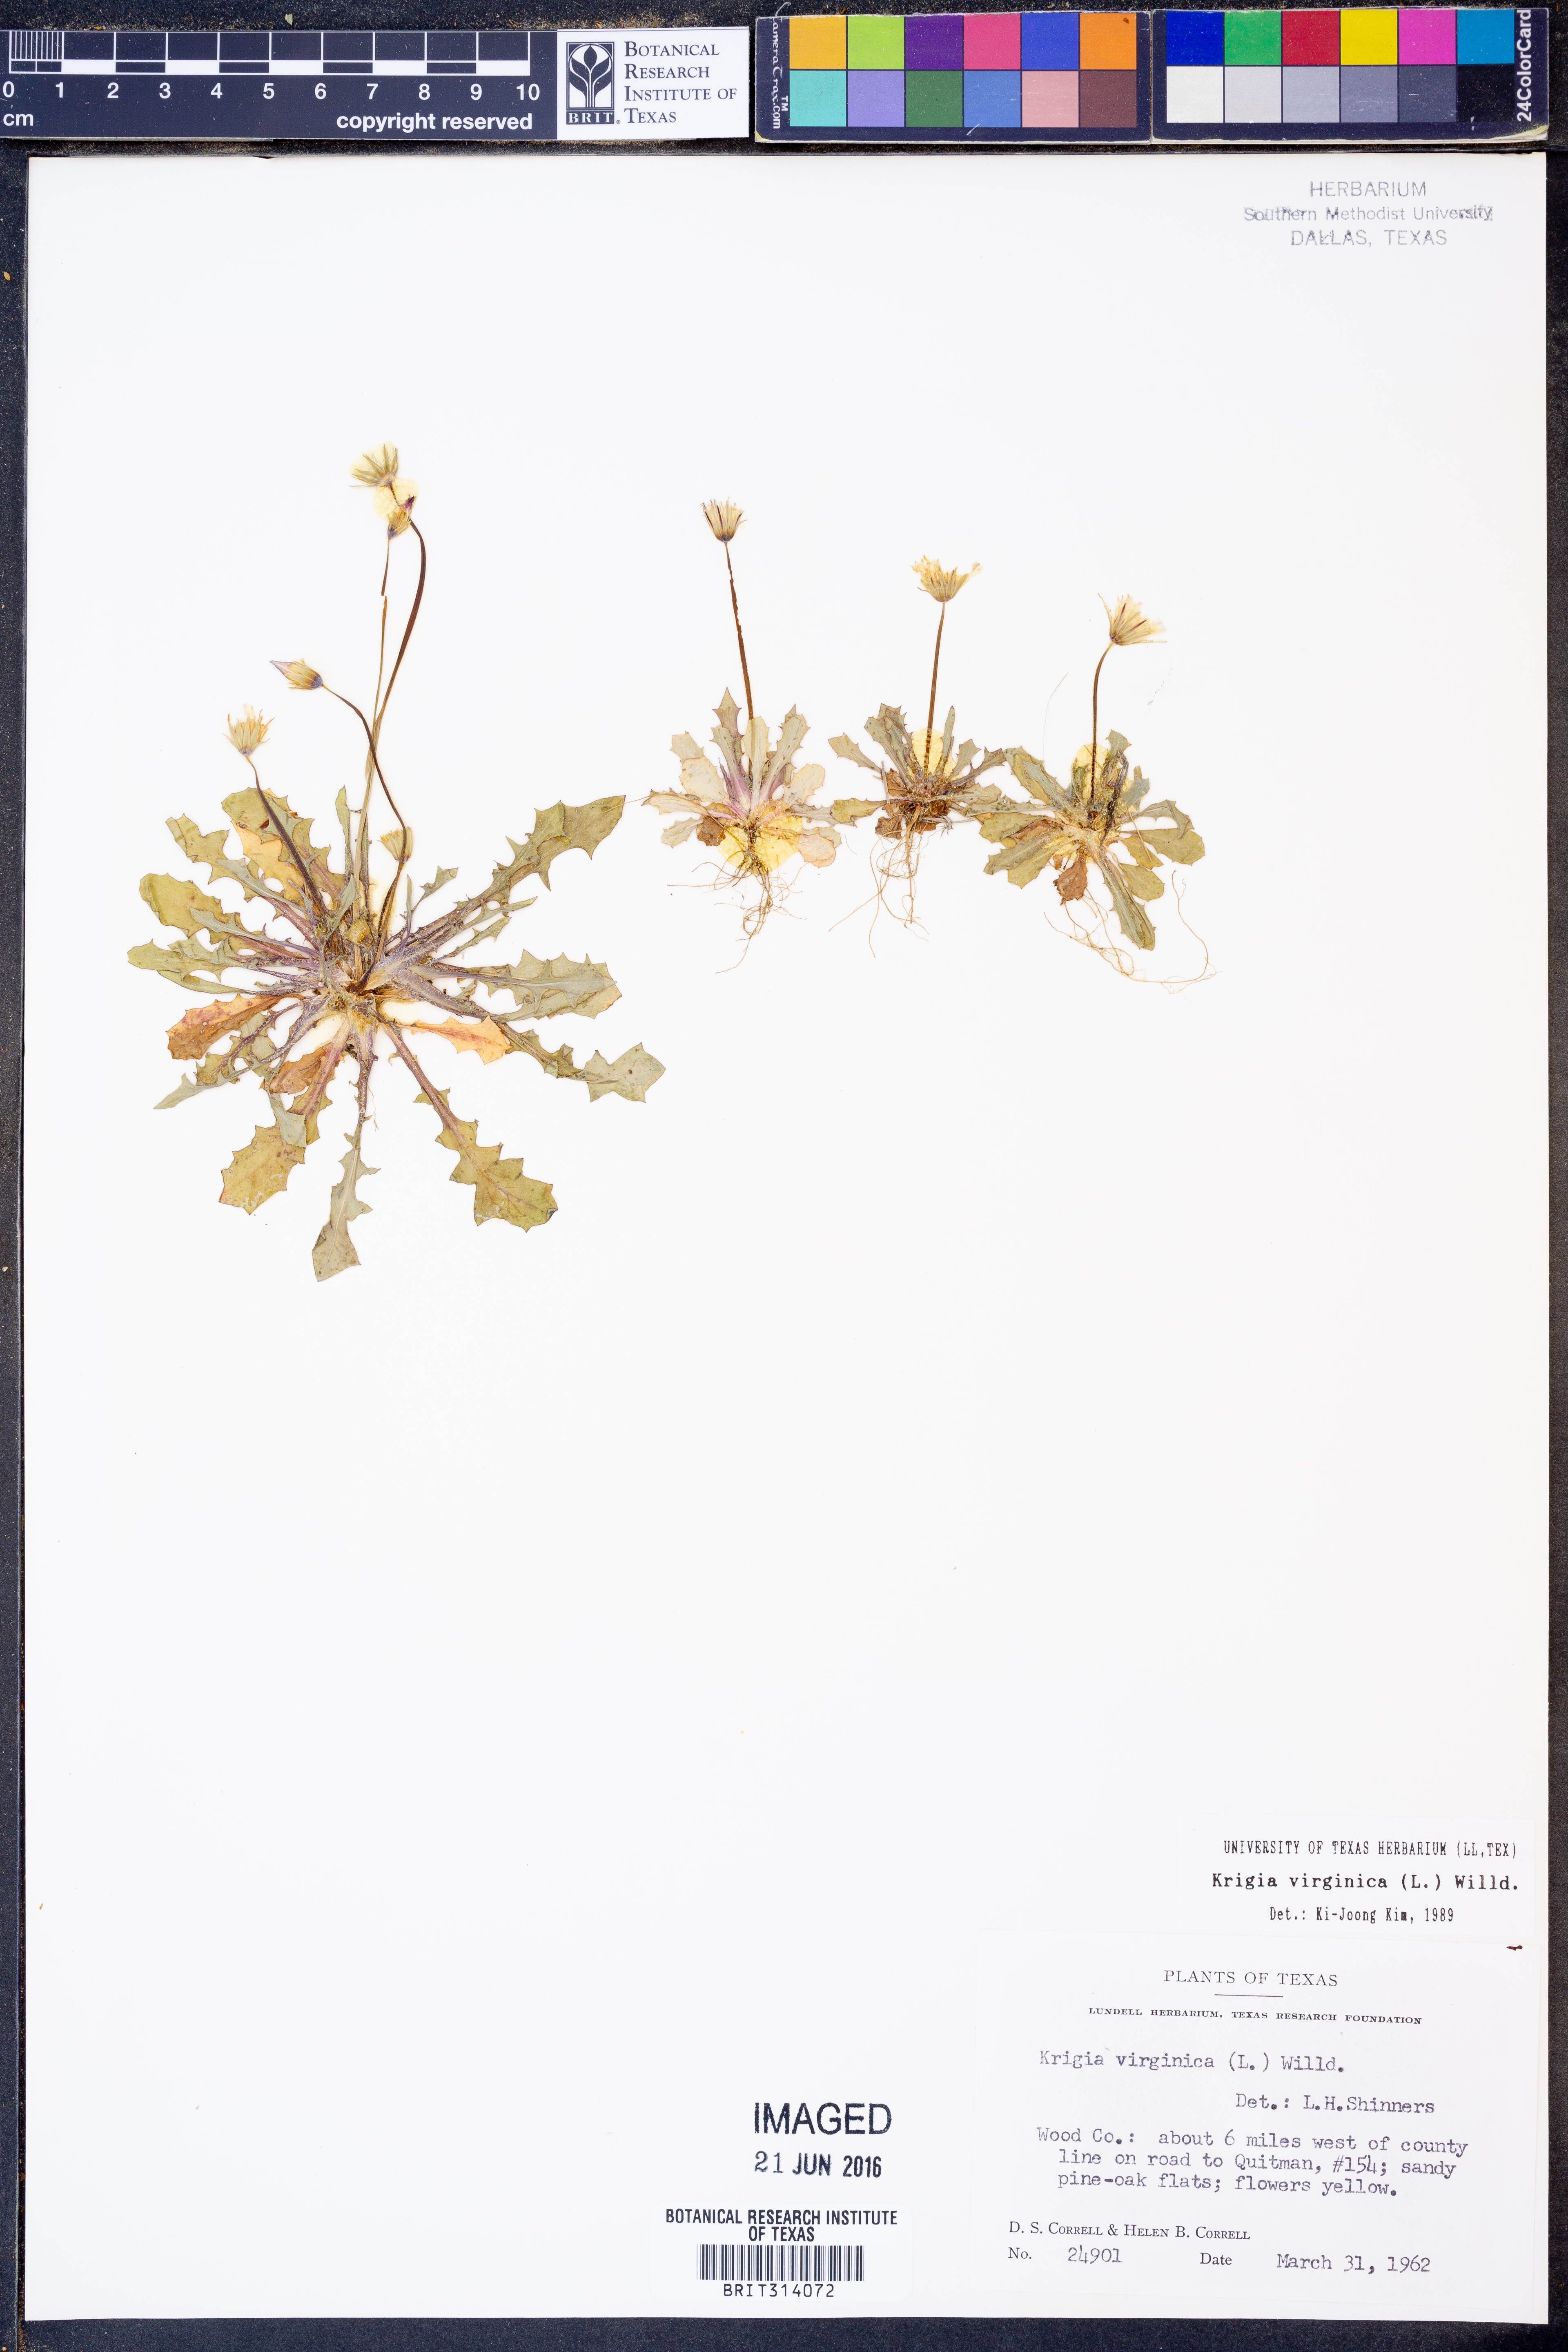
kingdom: Plantae
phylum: Tracheophyta
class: Magnoliopsida
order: Asterales
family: Asteraceae
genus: Krigia
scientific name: Krigia virginica
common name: Virginia dwarf-dandelion
